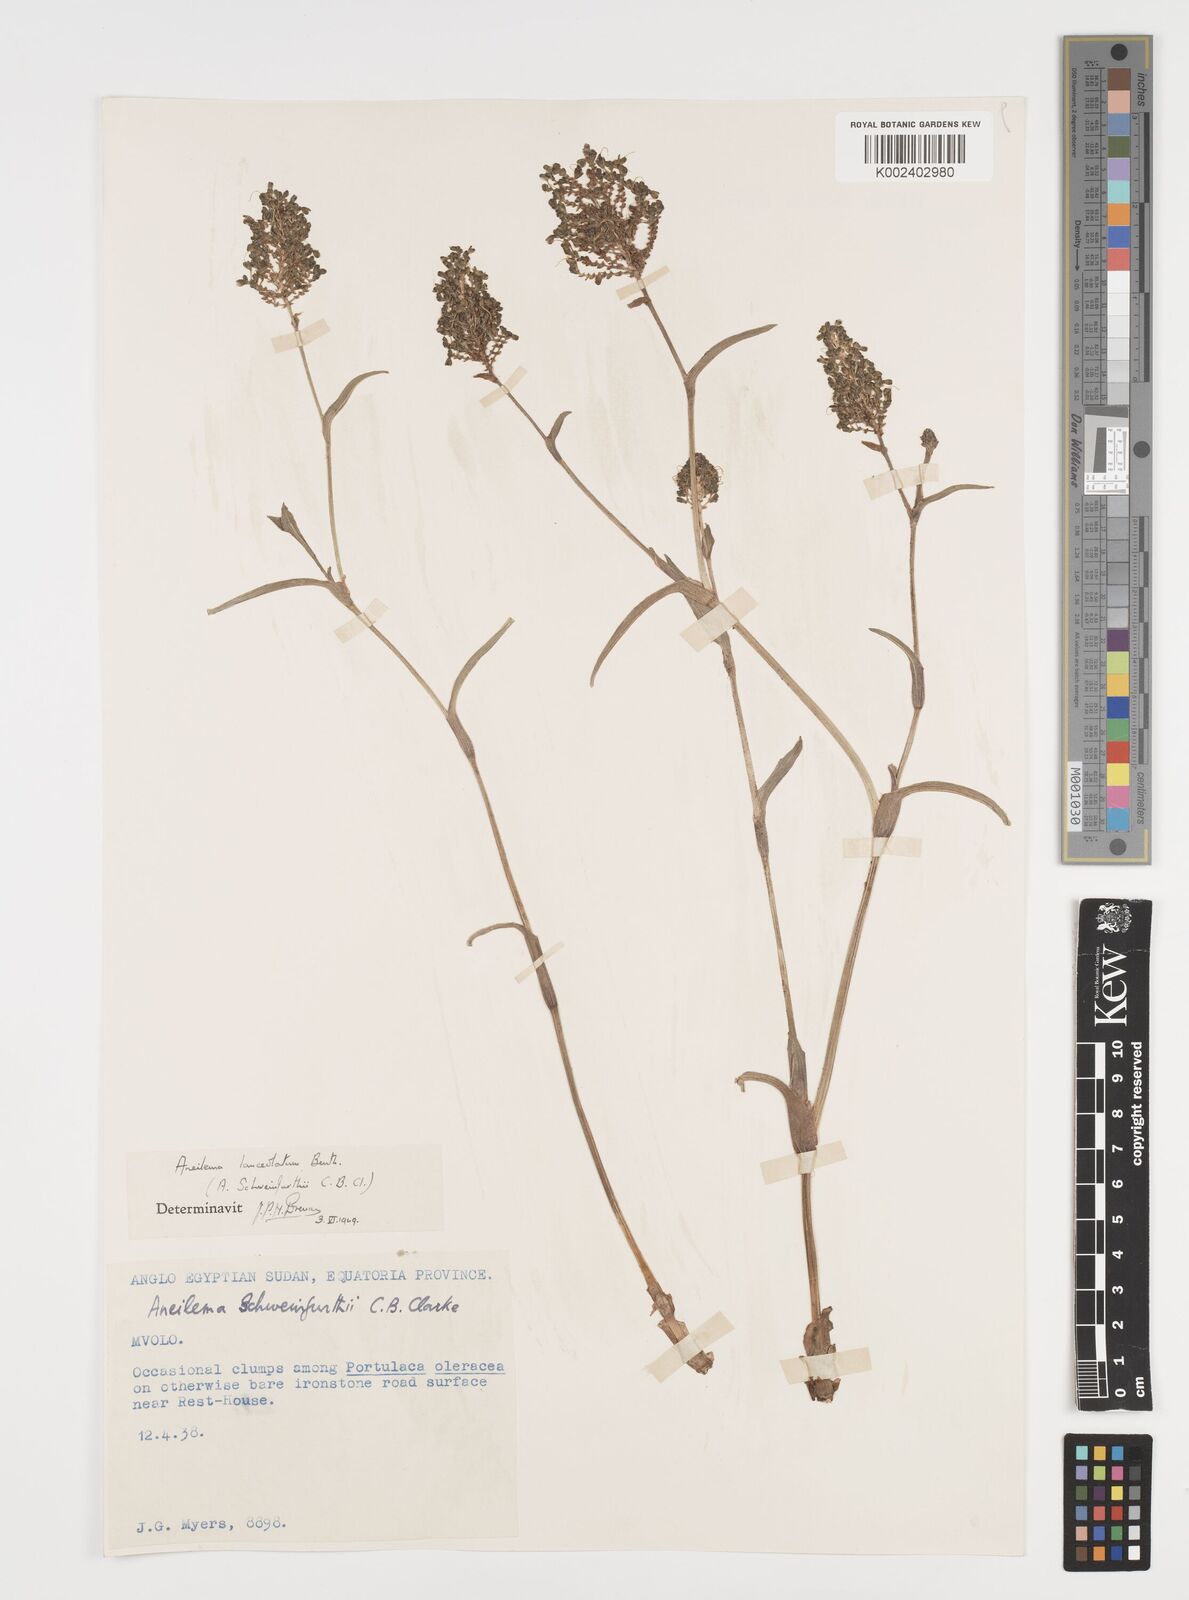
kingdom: Plantae
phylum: Tracheophyta
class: Liliopsida
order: Commelinales
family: Commelinaceae
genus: Aneilema
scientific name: Aneilema lanceolatum
